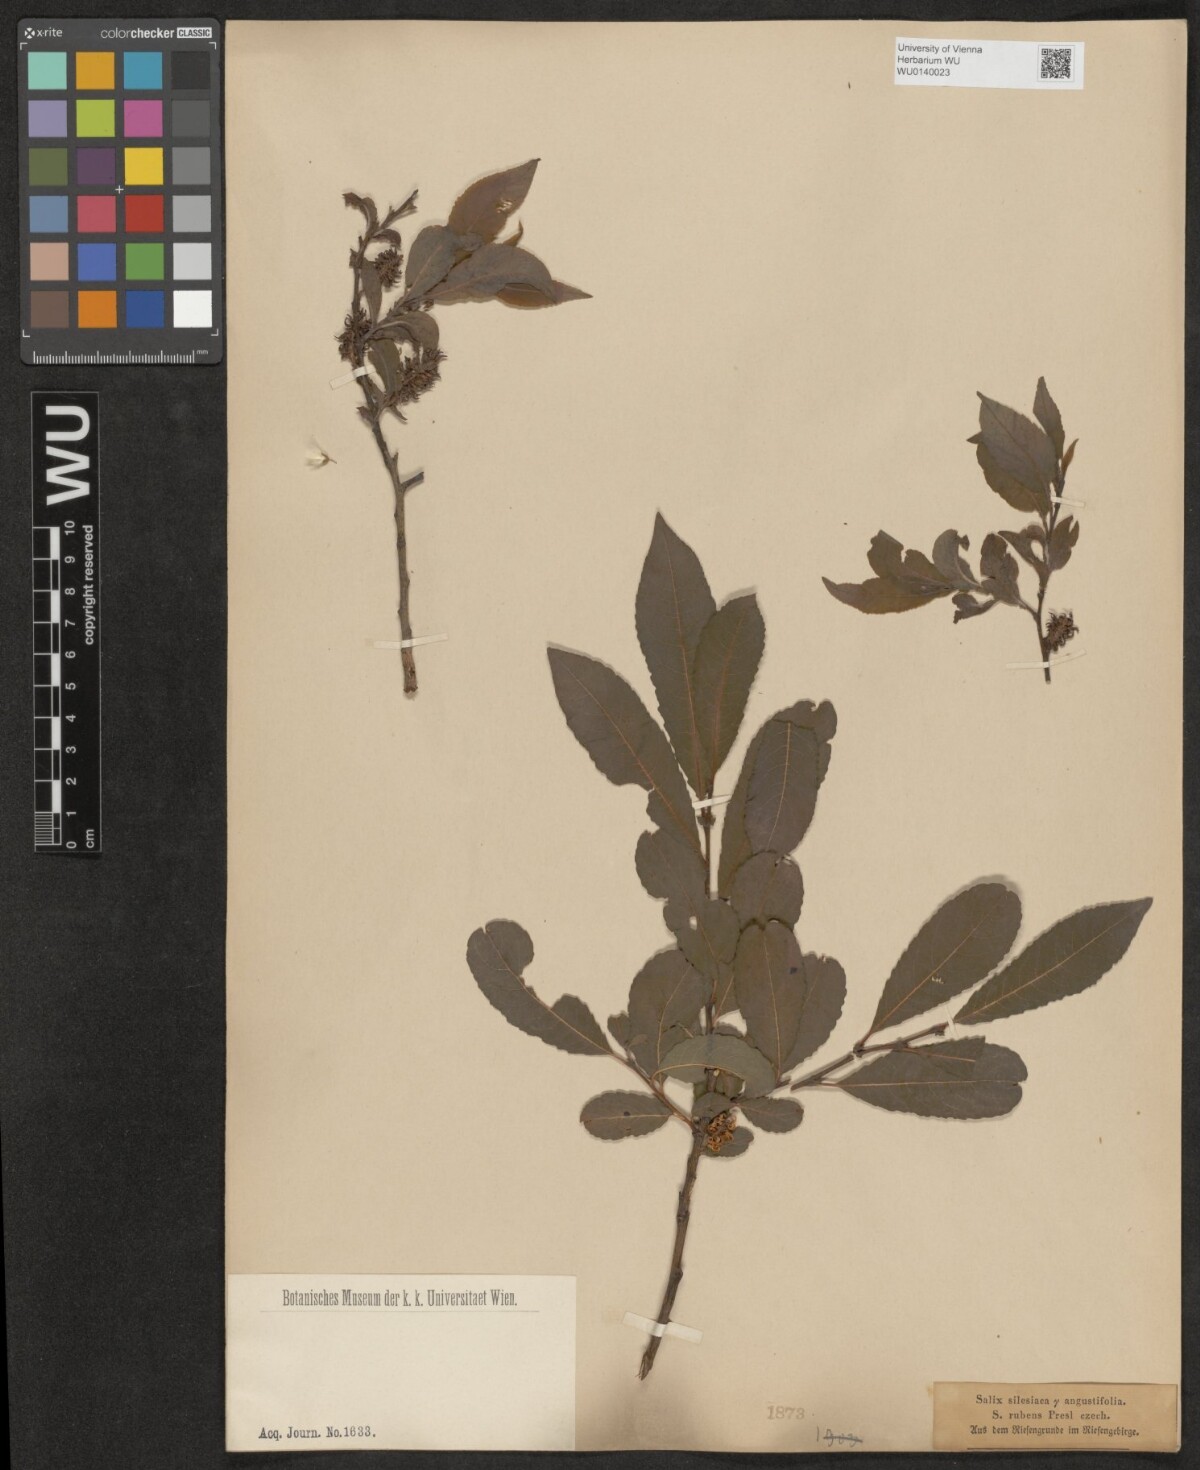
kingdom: Plantae
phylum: Tracheophyta
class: Magnoliopsida
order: Malpighiales
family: Salicaceae
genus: Salix
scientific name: Salix silesiaca
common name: Silesian willow
